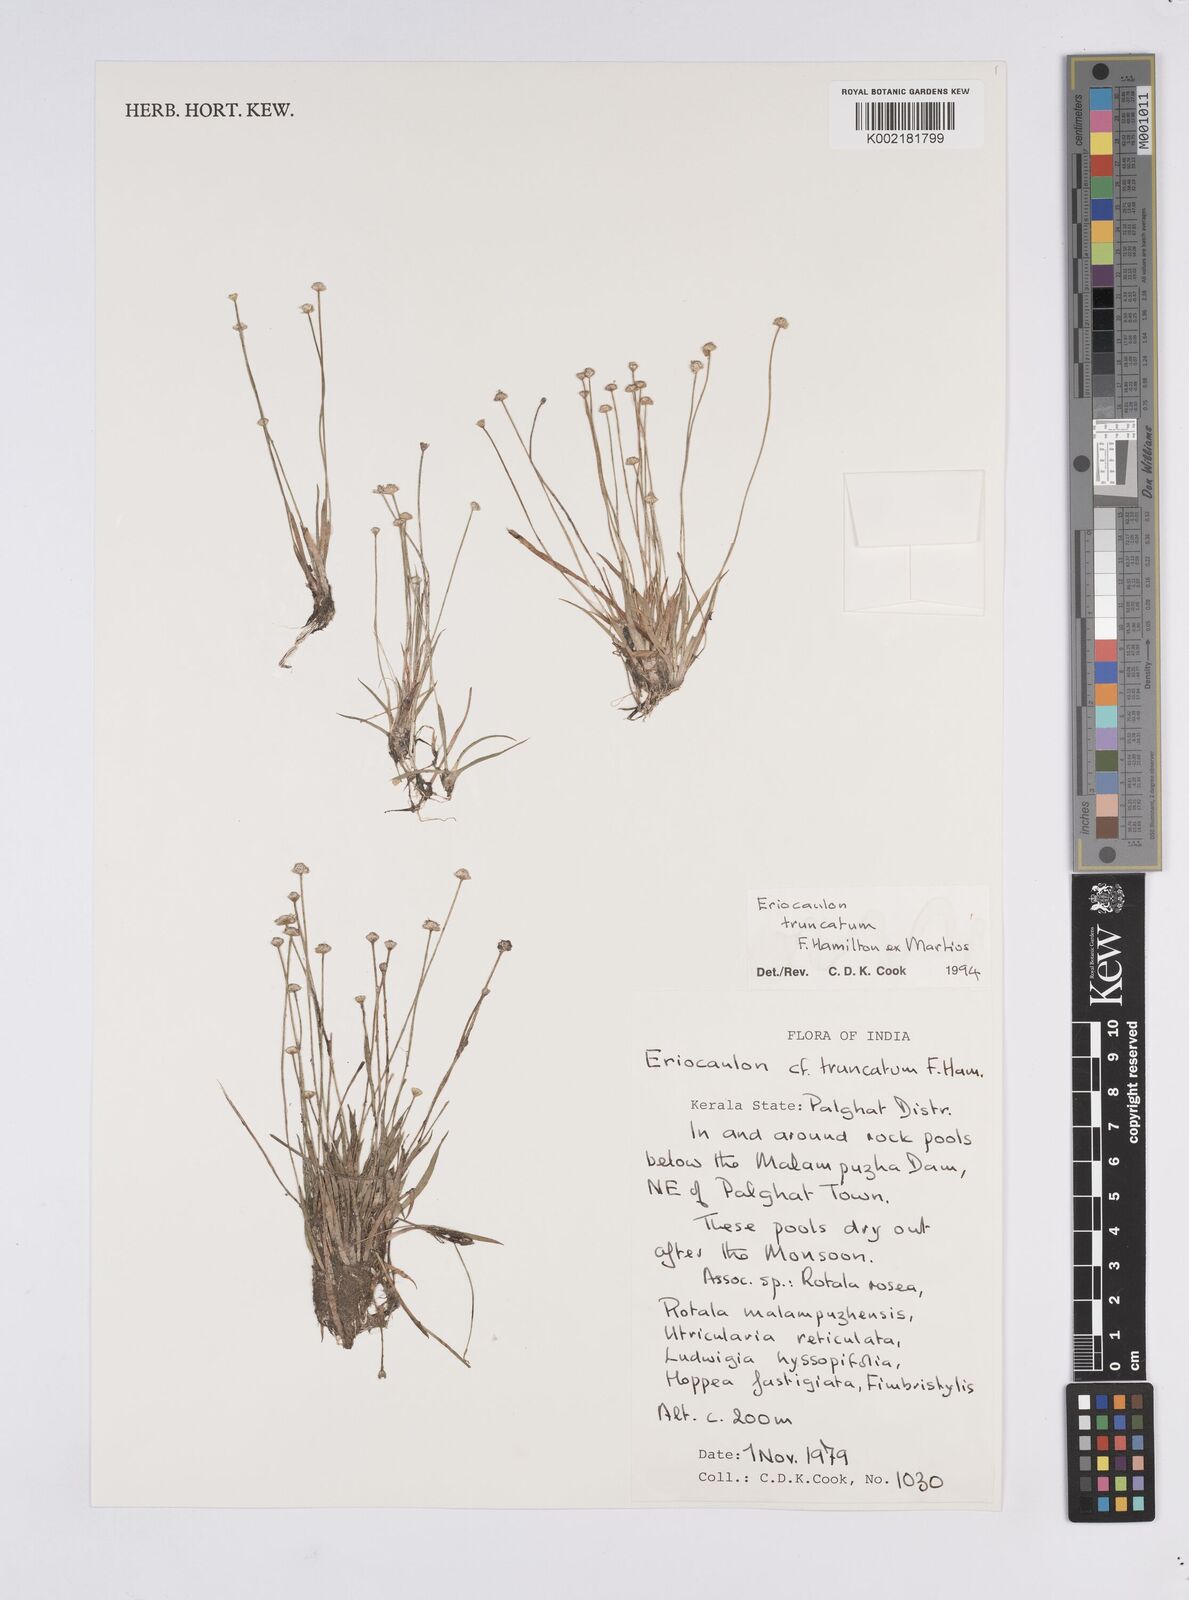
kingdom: Plantae
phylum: Tracheophyta
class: Liliopsida
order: Poales
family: Eriocaulaceae
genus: Eriocaulon
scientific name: Eriocaulon truncatum
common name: Short pipe-wort
